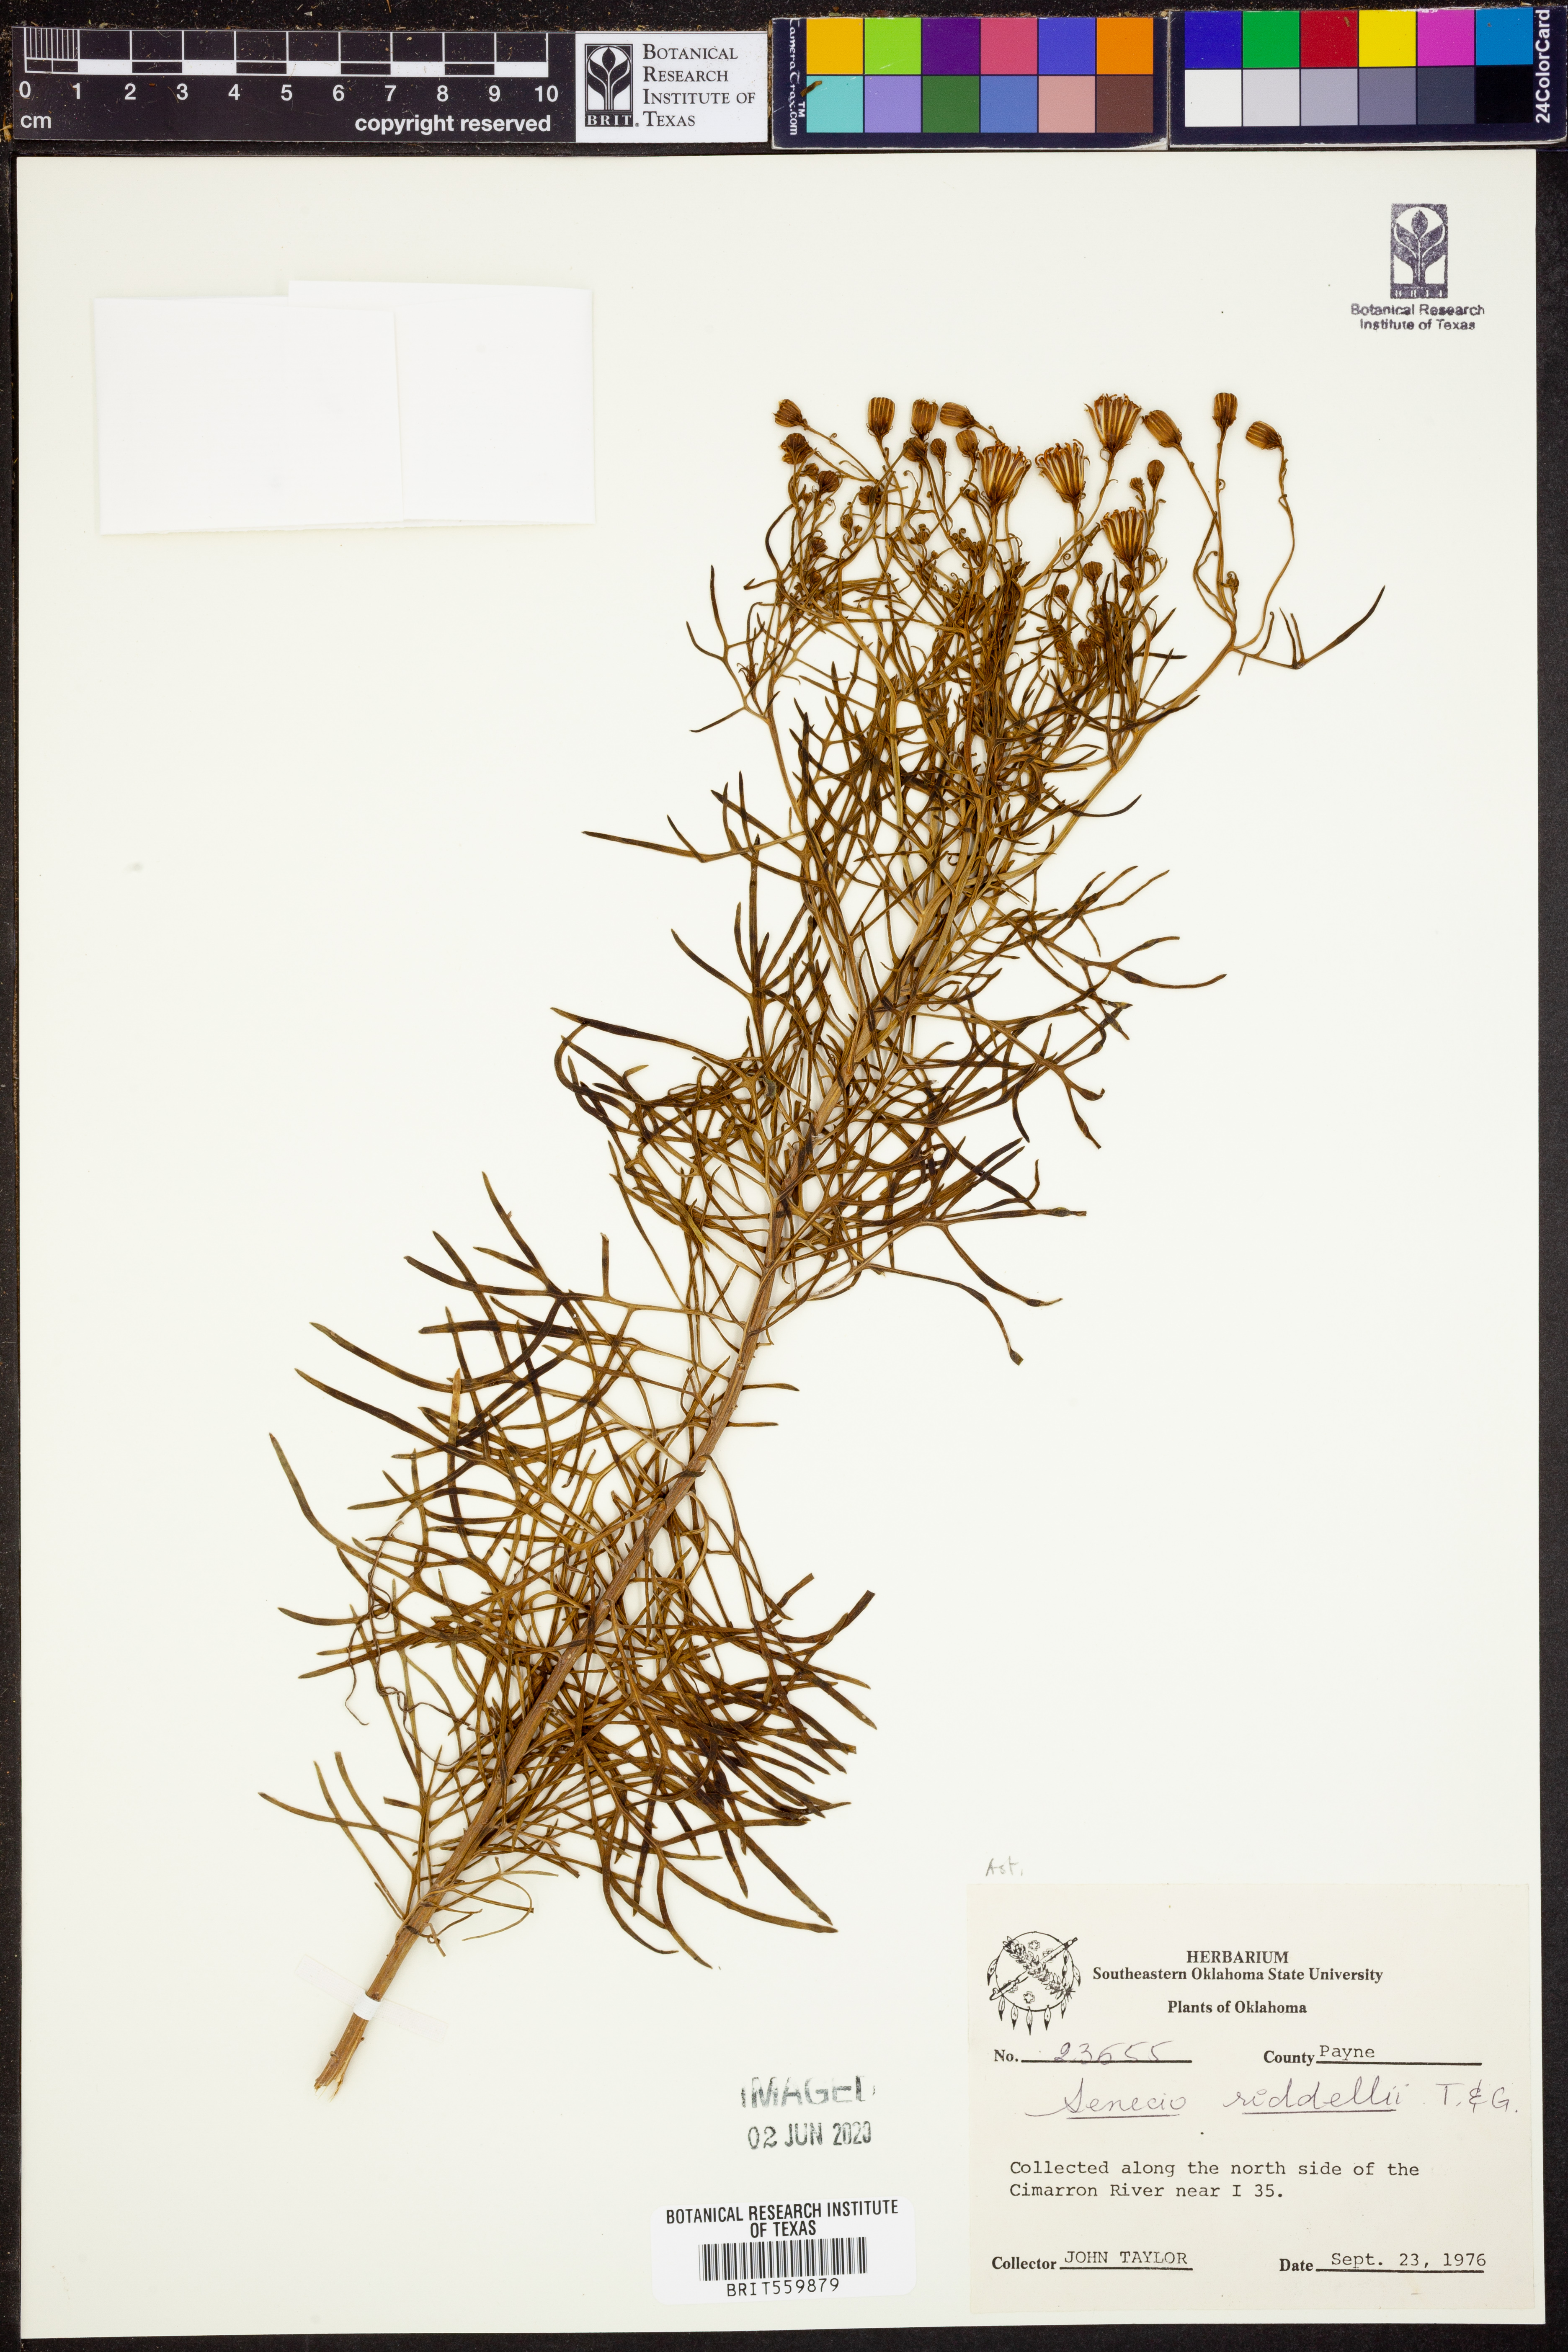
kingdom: Plantae
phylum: Tracheophyta
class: Magnoliopsida
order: Asterales
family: Asteraceae
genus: Senecio
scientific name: Senecio riddellii
